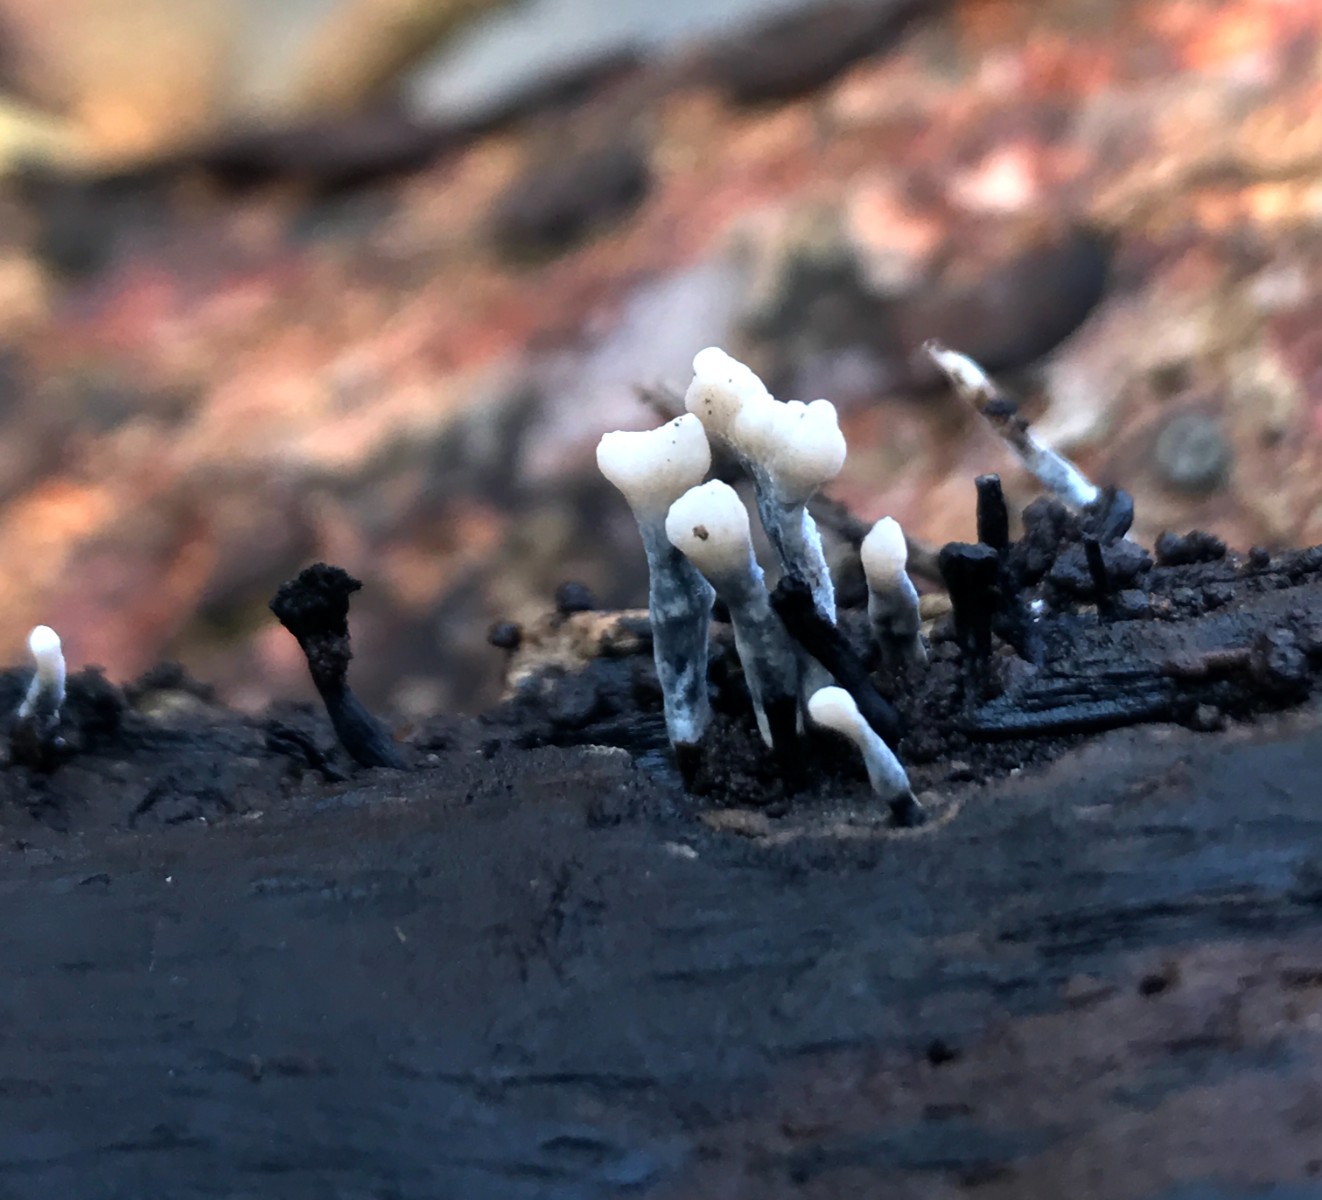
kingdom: Fungi
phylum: Ascomycota
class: Sordariomycetes
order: Xylariales
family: Xylariaceae
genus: Xylaria
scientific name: Xylaria hypoxylon
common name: grenet stødsvamp
